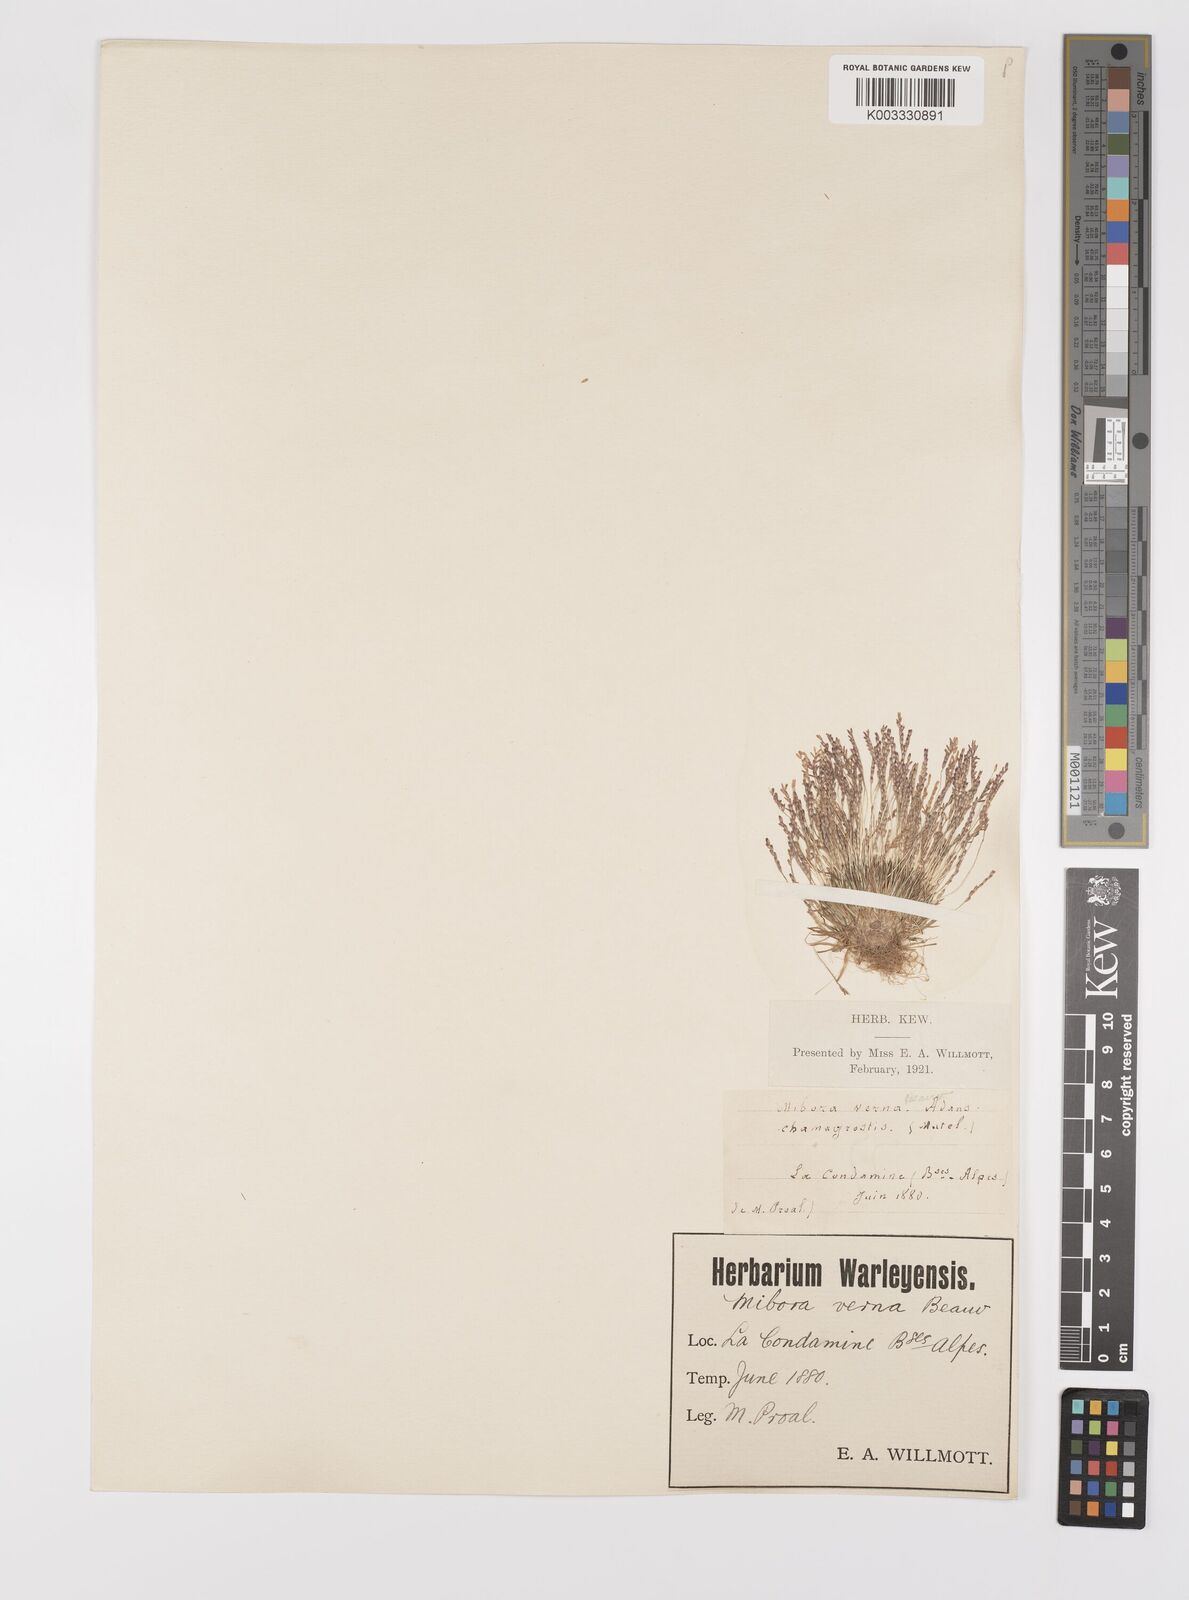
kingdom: Plantae
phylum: Tracheophyta
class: Liliopsida
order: Poales
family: Poaceae
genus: Mibora
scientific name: Mibora minima
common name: Early sand-grass
